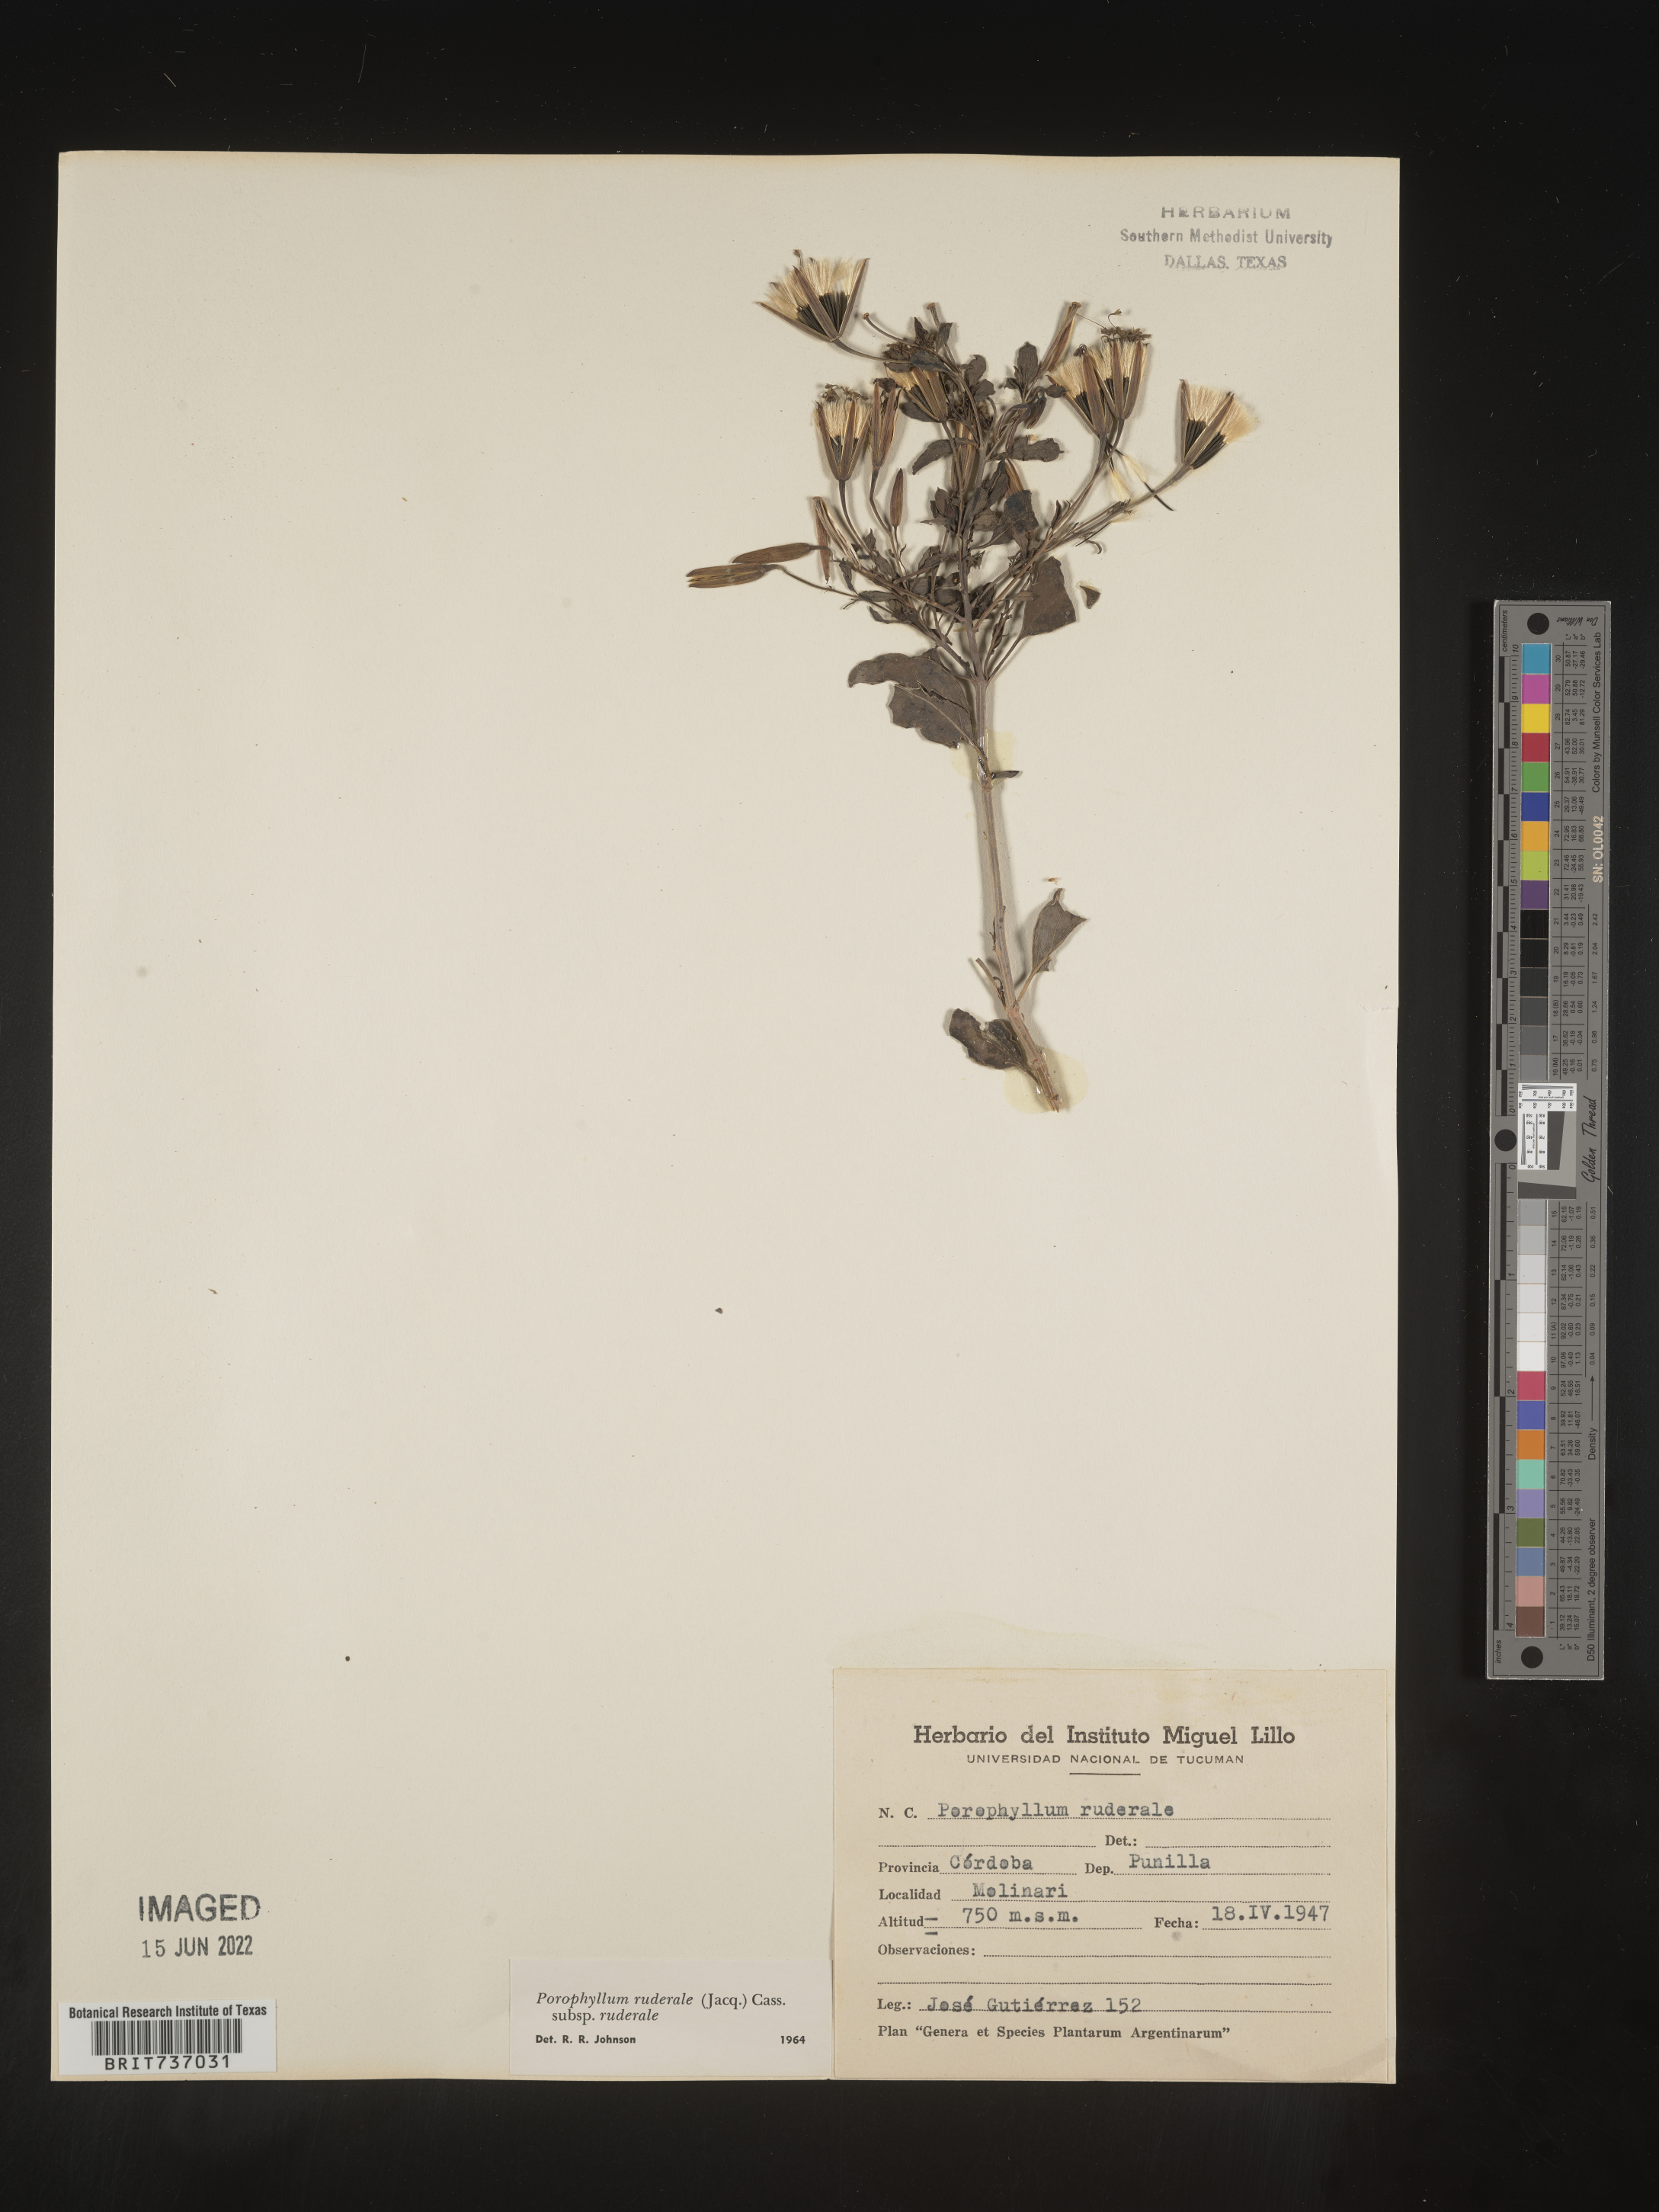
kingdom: Plantae
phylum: Tracheophyta
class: Magnoliopsida
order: Asterales
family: Asteraceae
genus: Porophyllum
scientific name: Porophyllum
